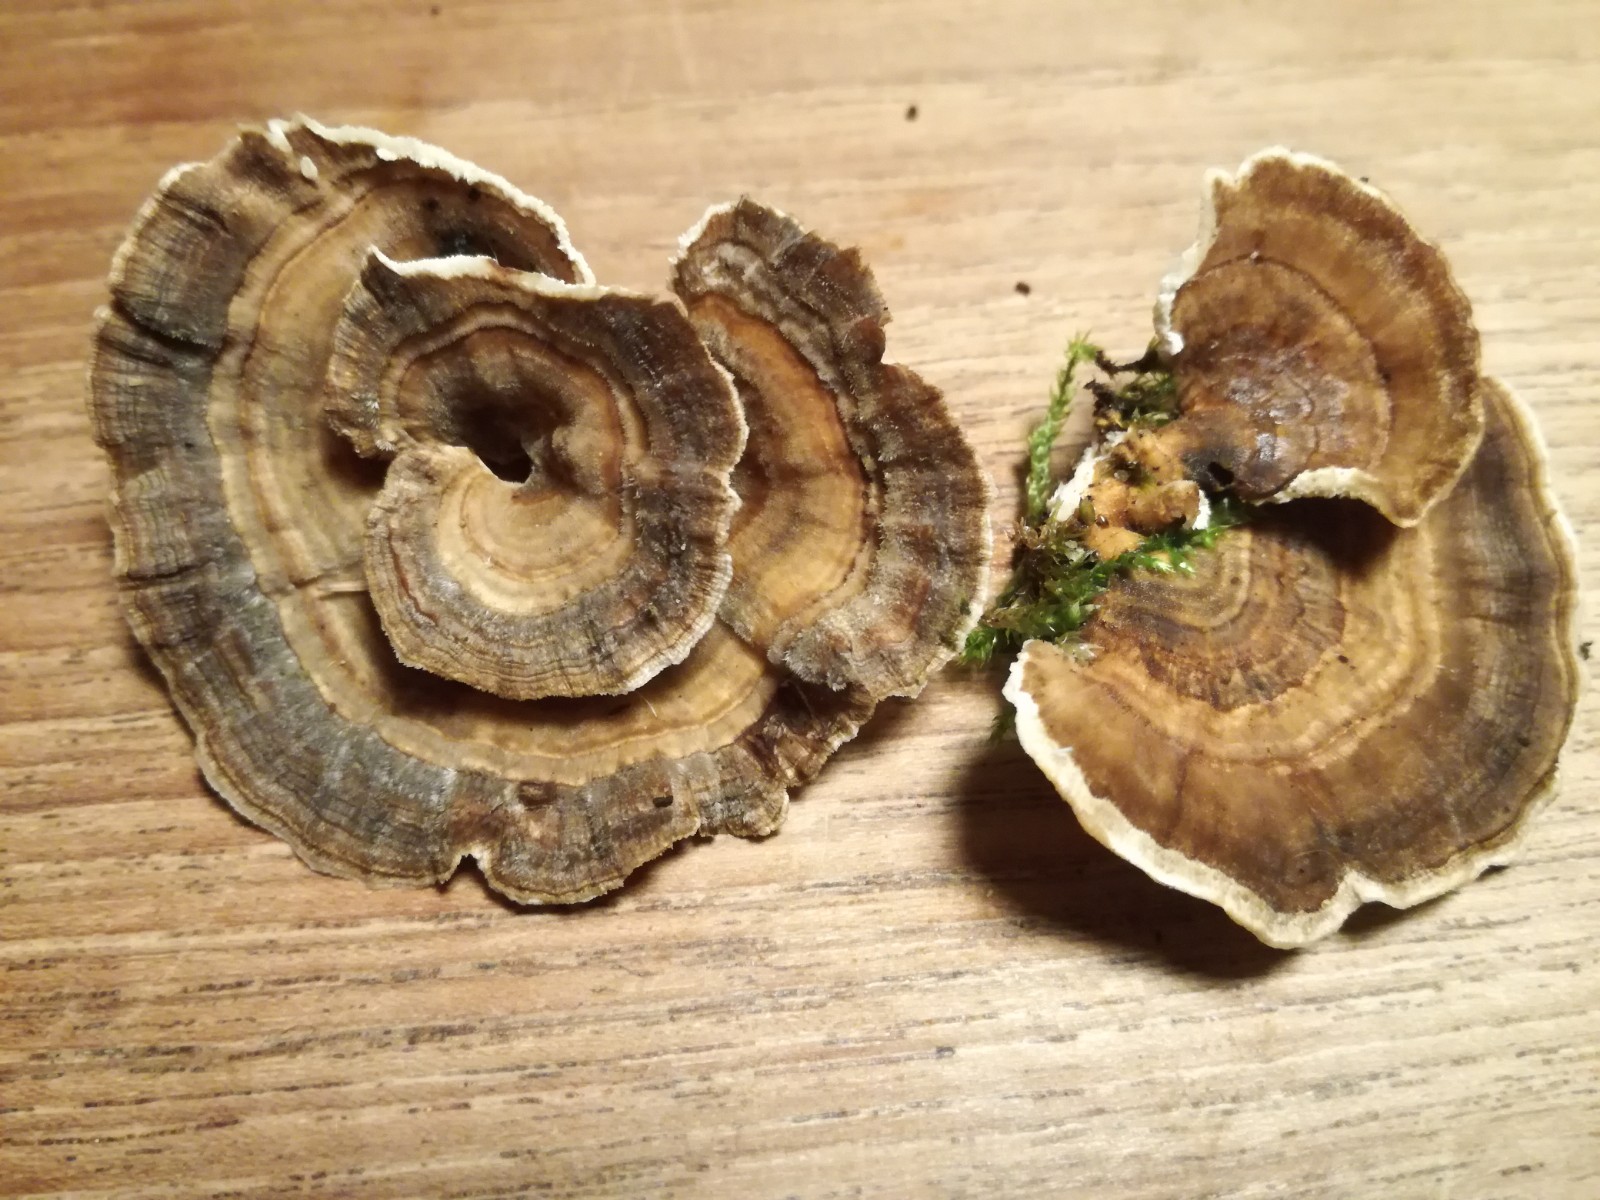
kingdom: Fungi
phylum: Basidiomycota
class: Agaricomycetes
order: Polyporales
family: Polyporaceae
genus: Trametes
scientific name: Trametes versicolor
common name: broget læderporesvamp
